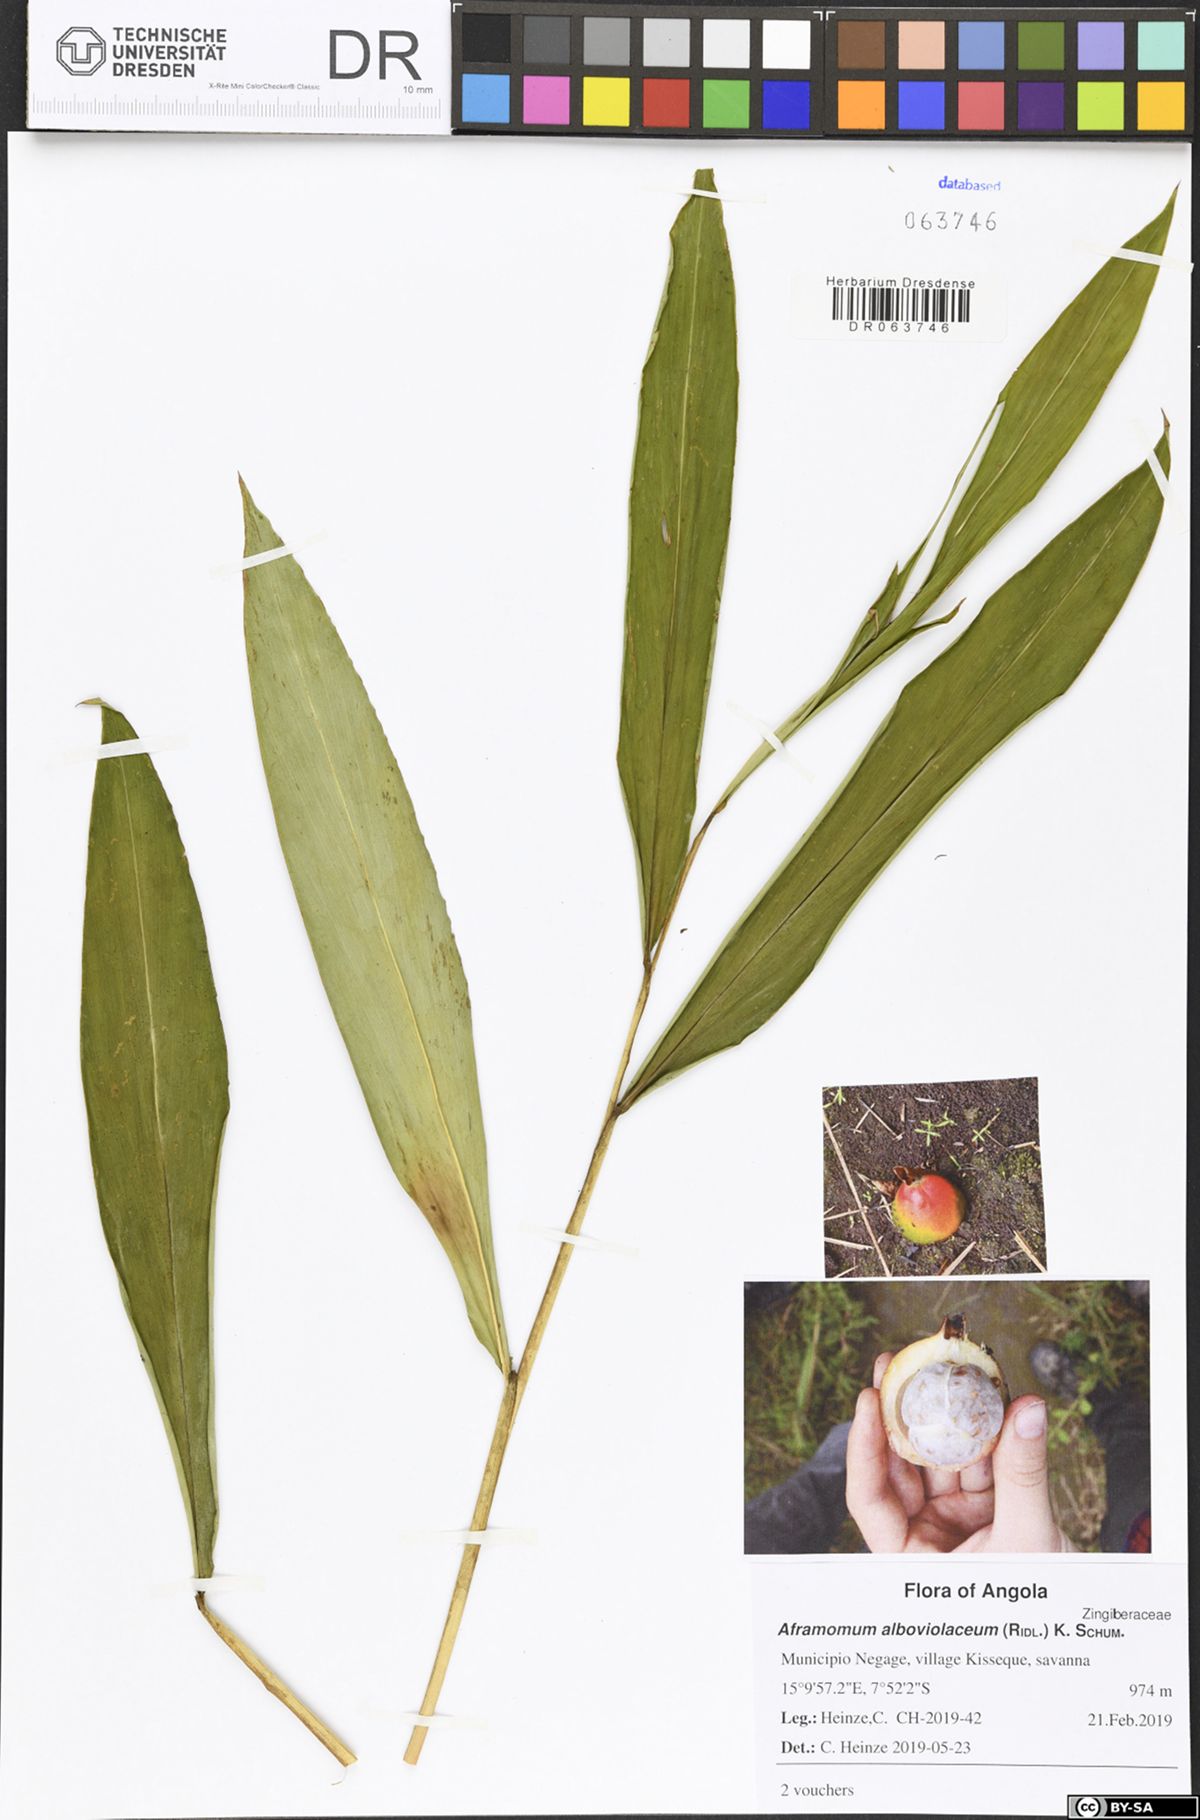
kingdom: Plantae
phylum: Tracheophyta
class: Liliopsida
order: Zingiberales
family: Zingiberaceae
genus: Aframomum
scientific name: Aframomum alboviolaceum
